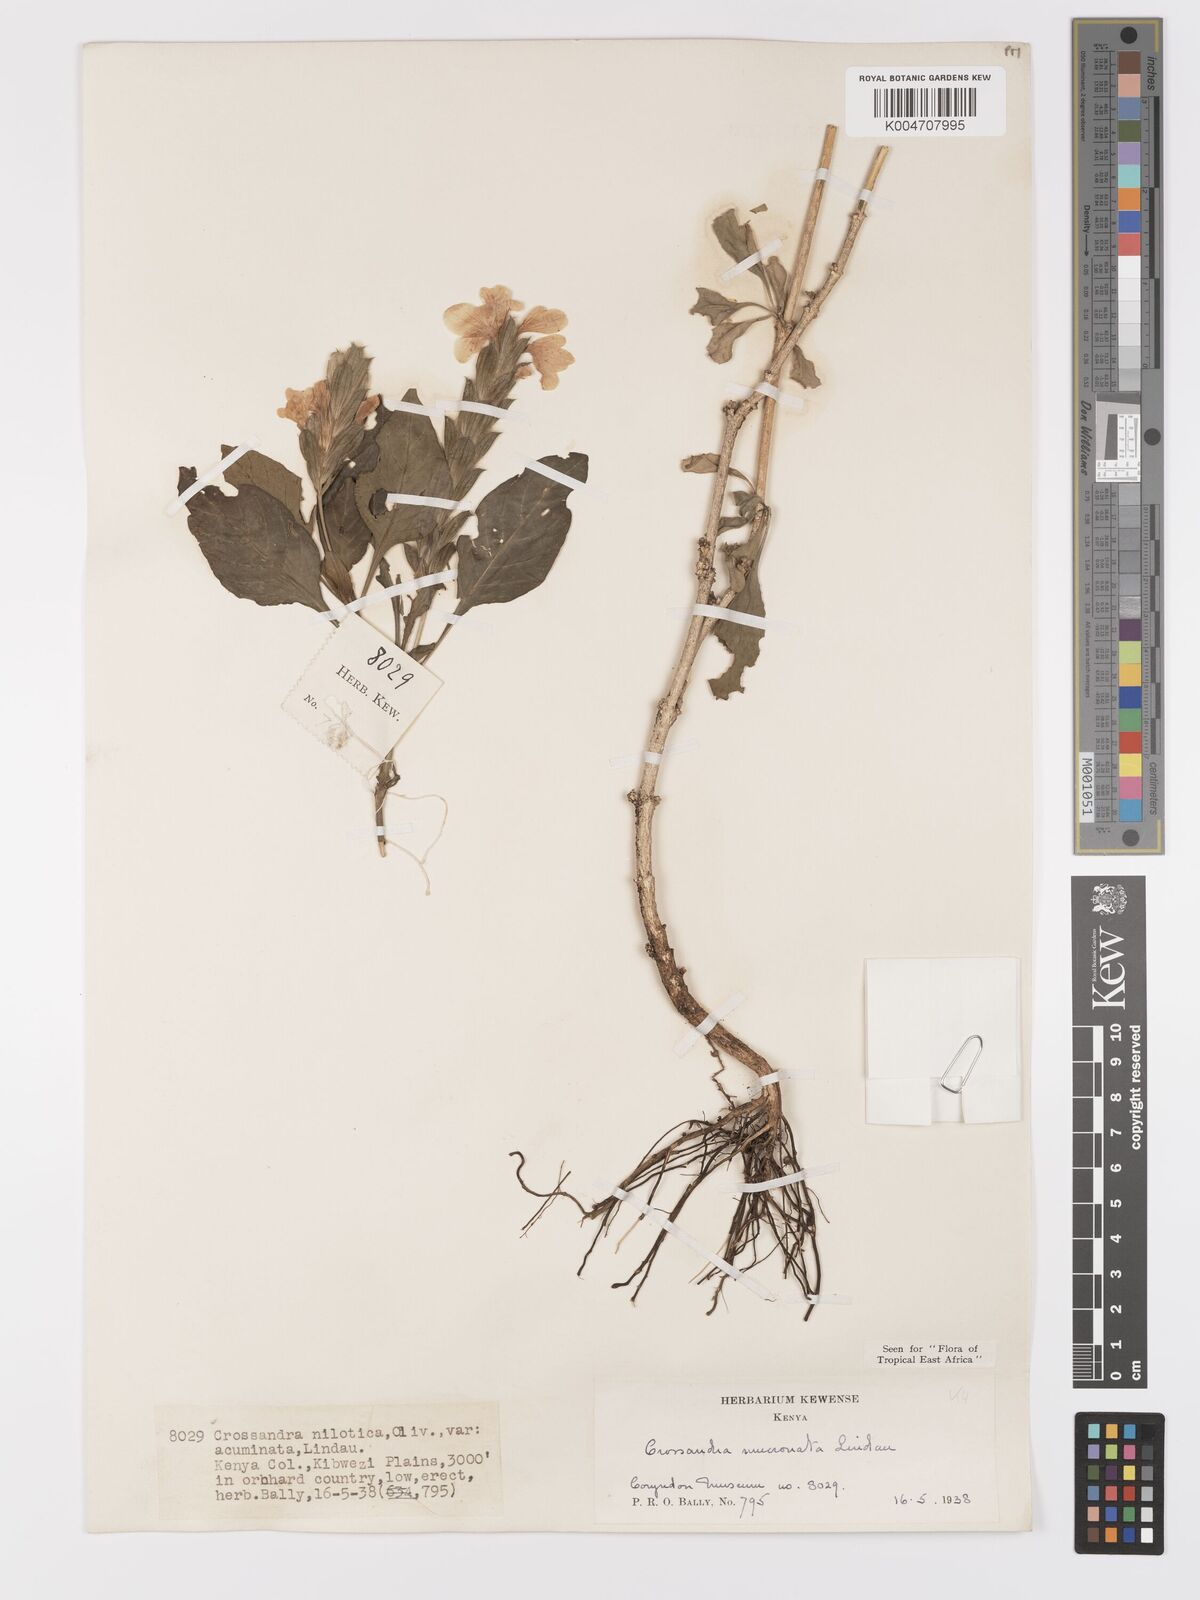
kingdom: Plantae
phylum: Tracheophyta
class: Magnoliopsida
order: Lamiales
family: Acanthaceae
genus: Crossandra
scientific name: Crossandra mucronata
